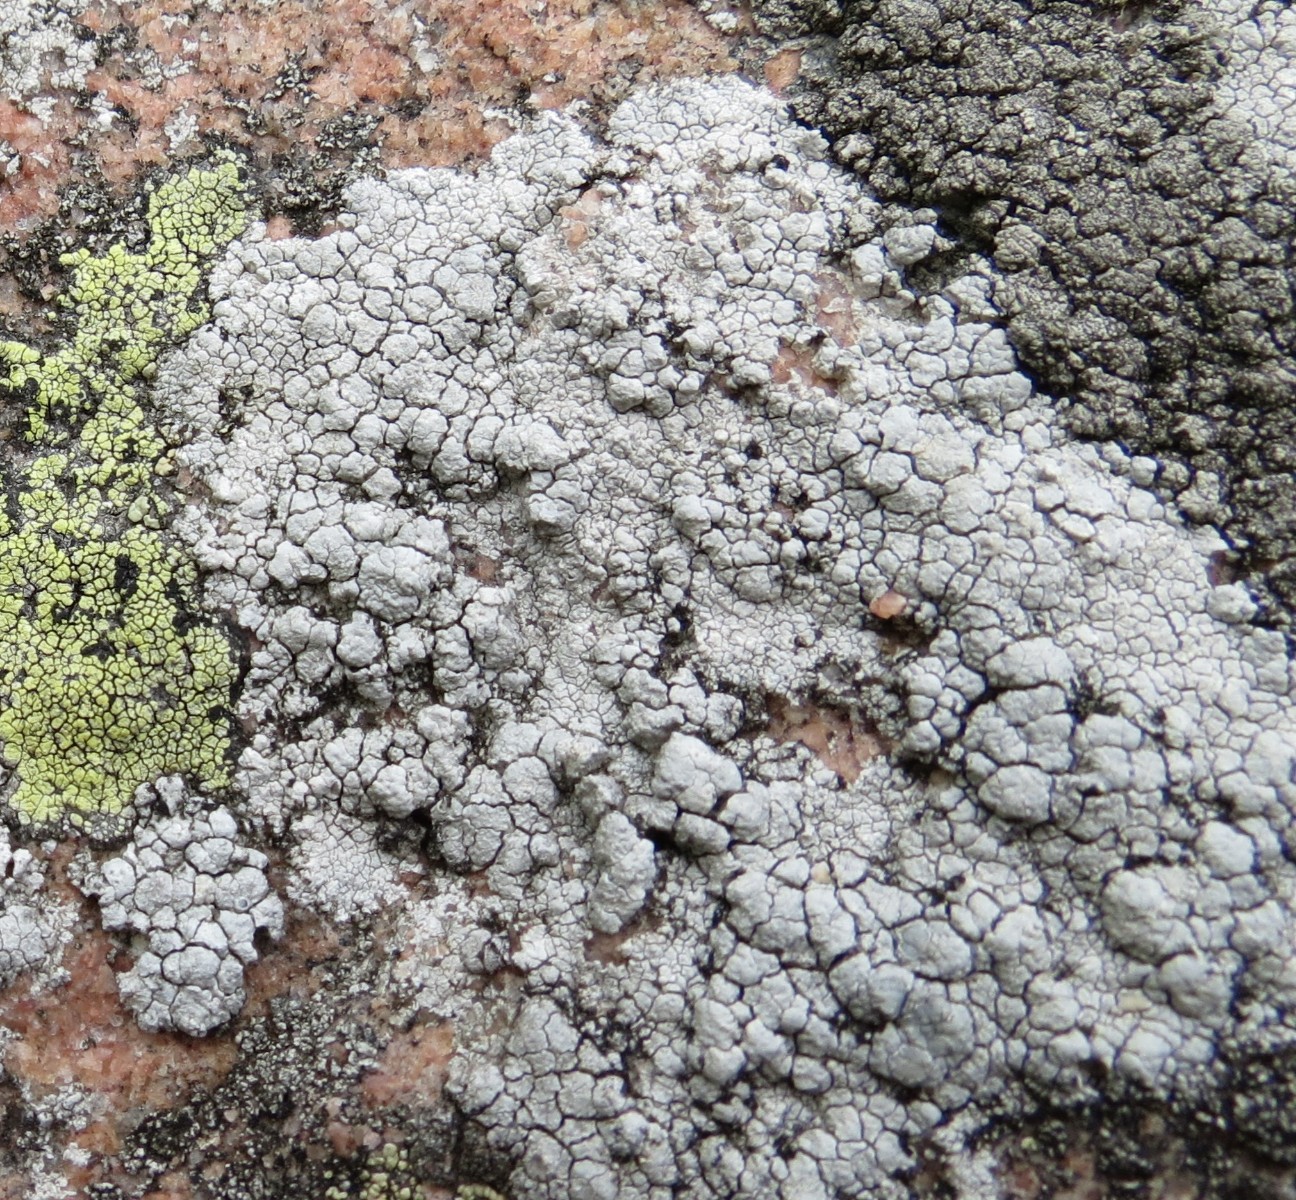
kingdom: Fungi
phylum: Ascomycota
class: Lecanoromycetes
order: Lecanorales
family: Lecanoraceae
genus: Glaucomaria
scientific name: Glaucomaria rupicola
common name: stengærde-kantskivelav
